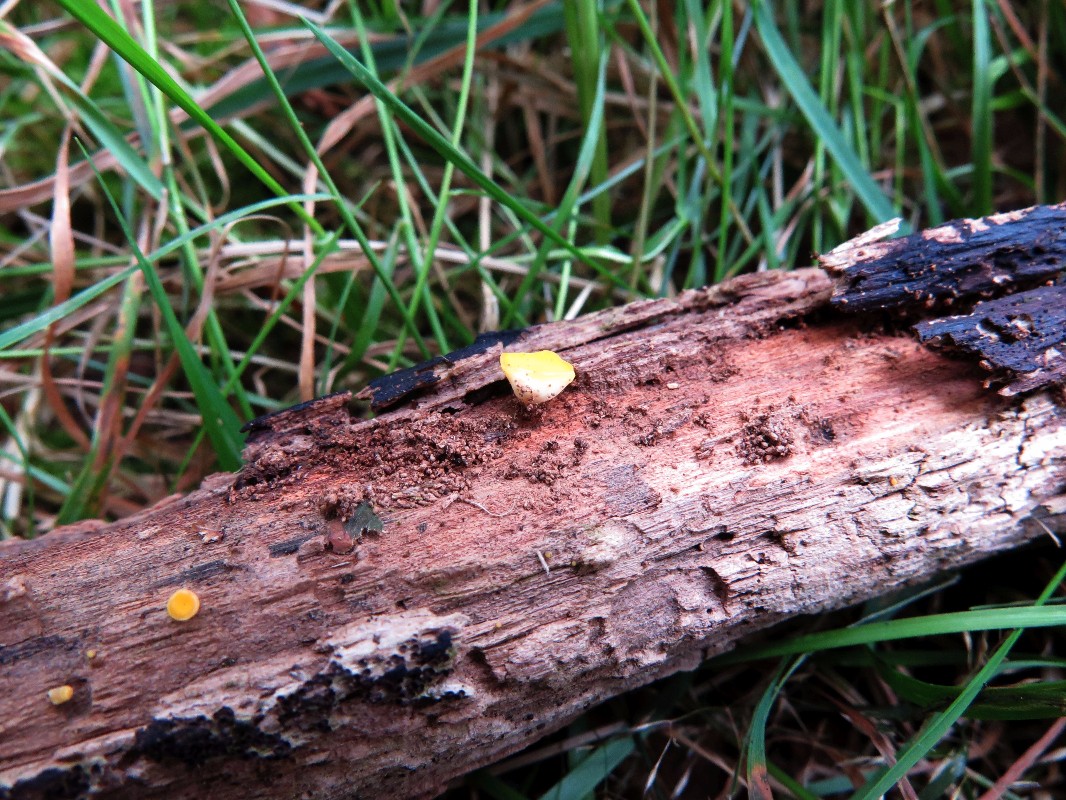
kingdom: Fungi
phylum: Ascomycota
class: Leotiomycetes
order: Helotiales
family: Helotiaceae
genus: Hymenoscyphus
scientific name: Hymenoscyphus
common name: stilkskive
